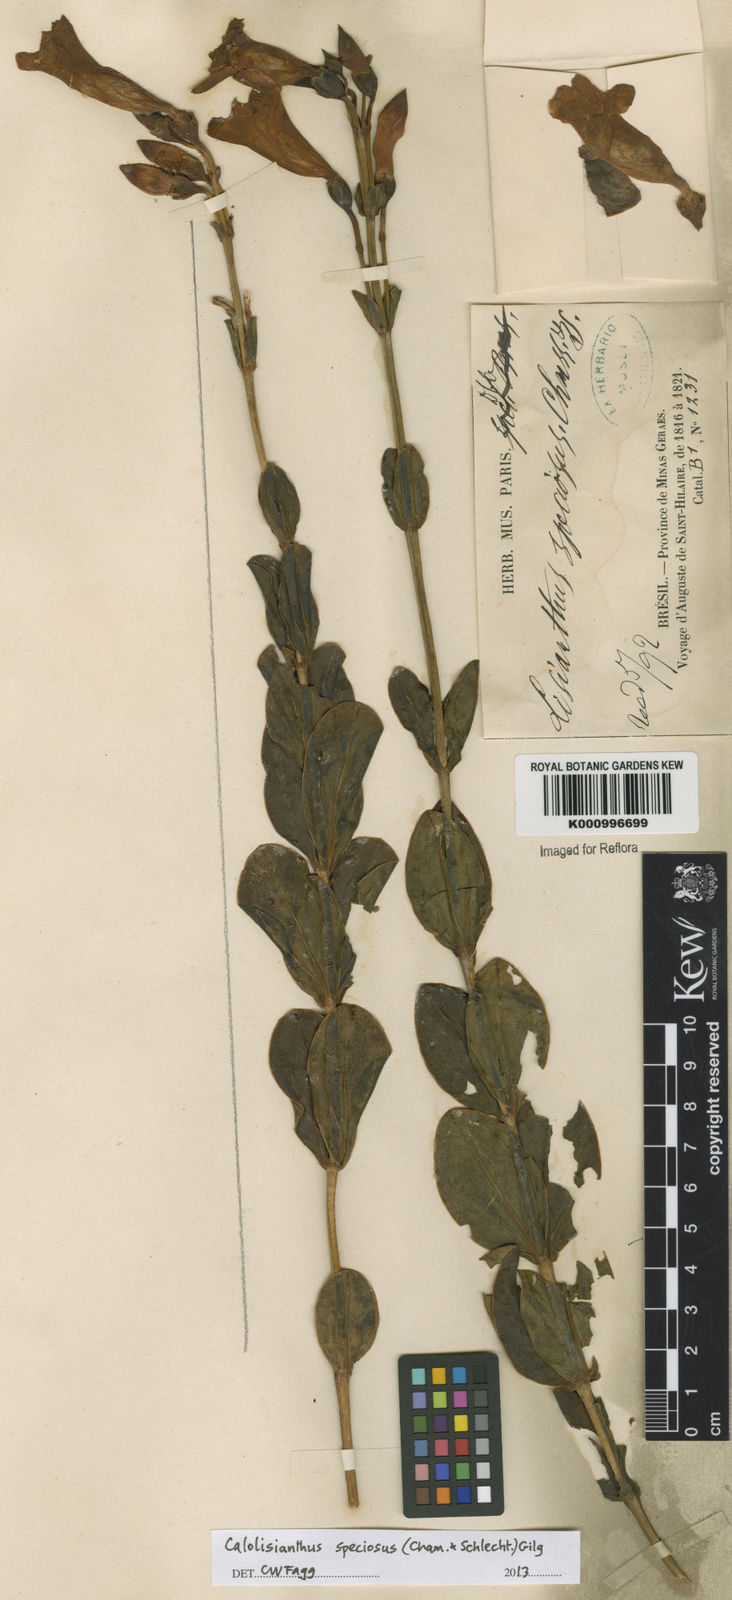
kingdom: Plantae
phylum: Tracheophyta
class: Magnoliopsida
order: Gentianales
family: Gentianaceae
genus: Calolisianthus
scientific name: Calolisianthus speciosus
